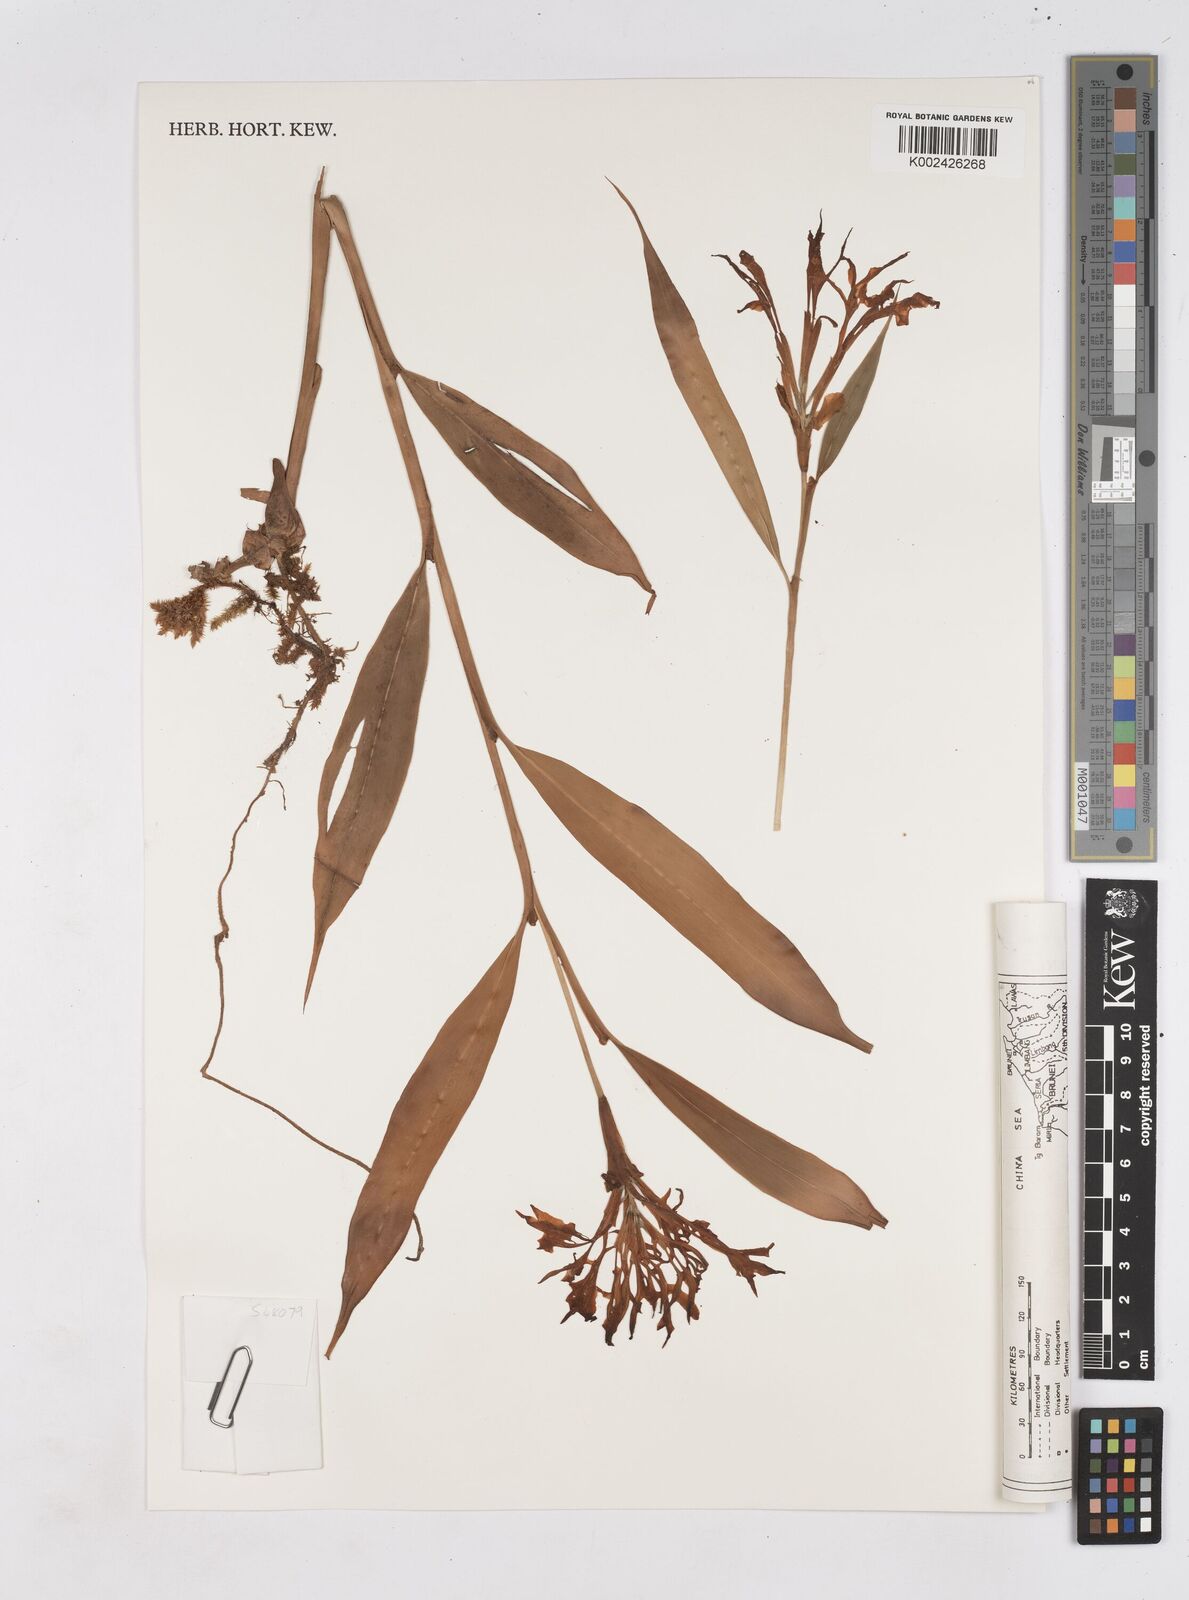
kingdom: Plantae
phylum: Tracheophyta
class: Liliopsida
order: Zingiberales
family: Zingiberaceae
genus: Burbidgea
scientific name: Burbidgea nitida
